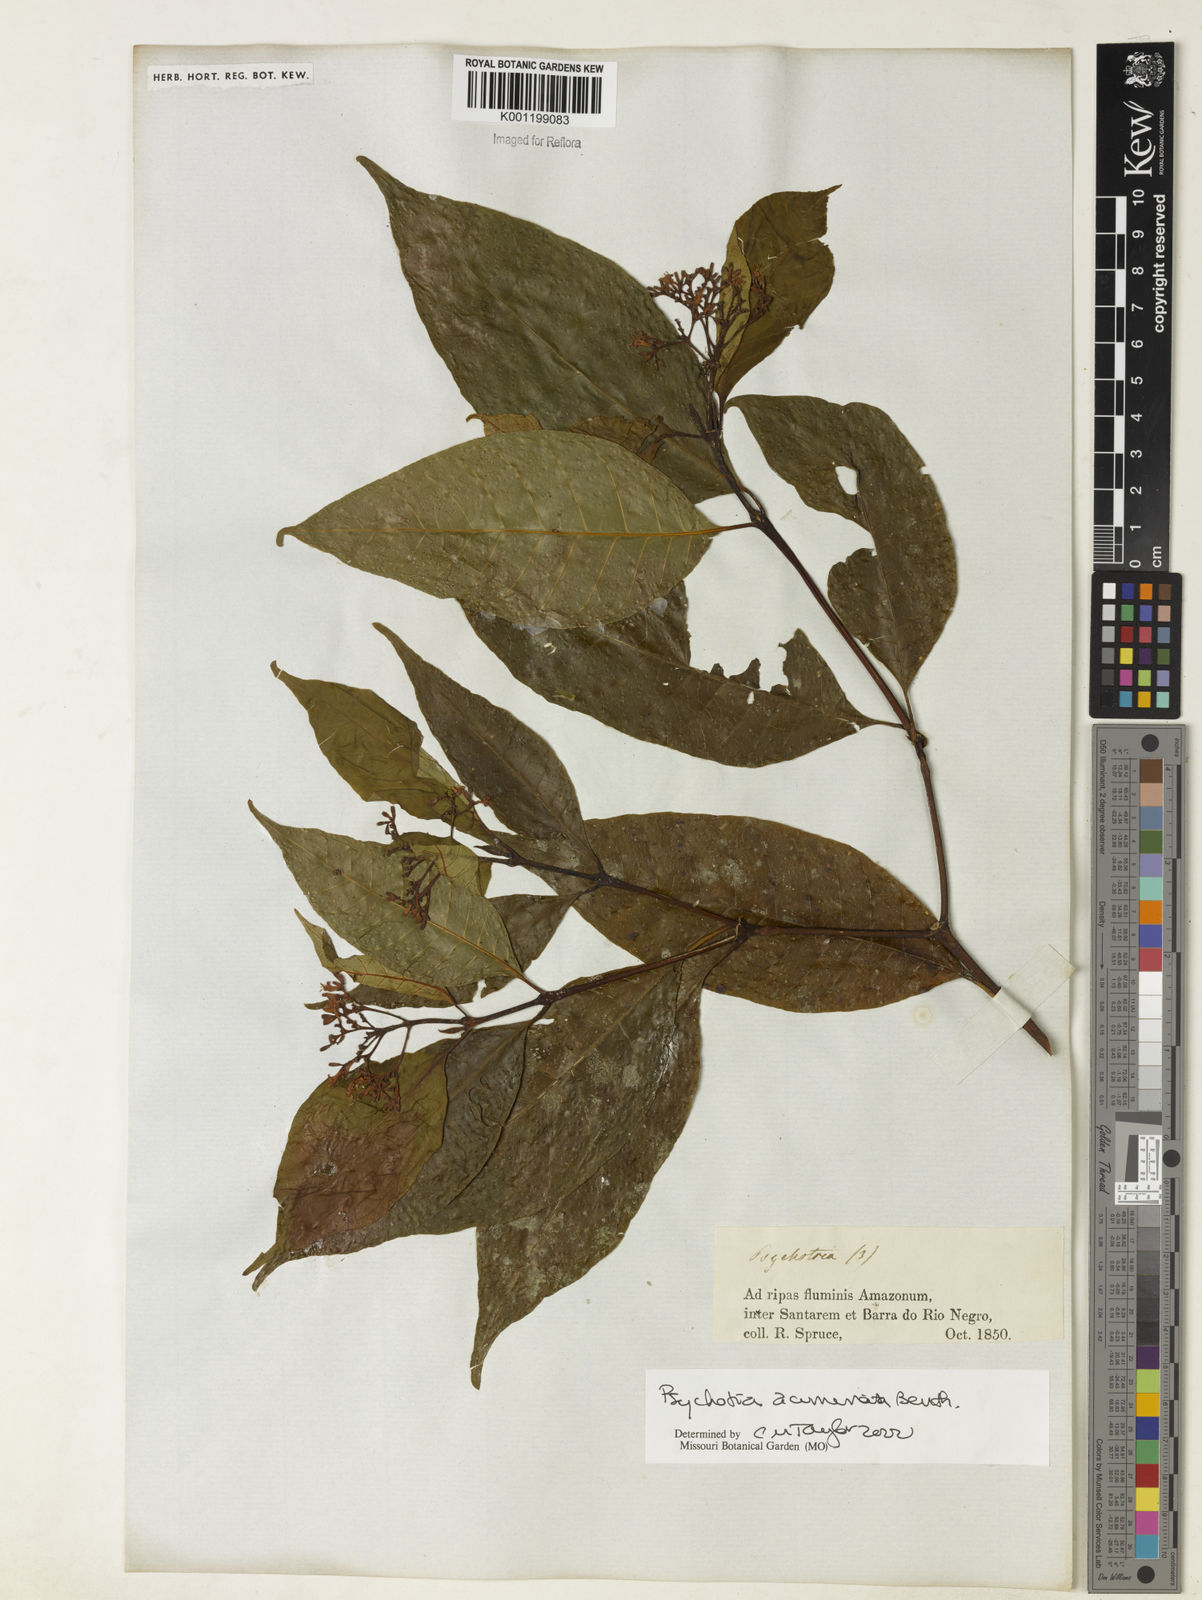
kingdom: Plantae
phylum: Tracheophyta
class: Magnoliopsida
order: Gentianales
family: Rubiaceae
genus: Palicourea
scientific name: Palicourea acuminata
